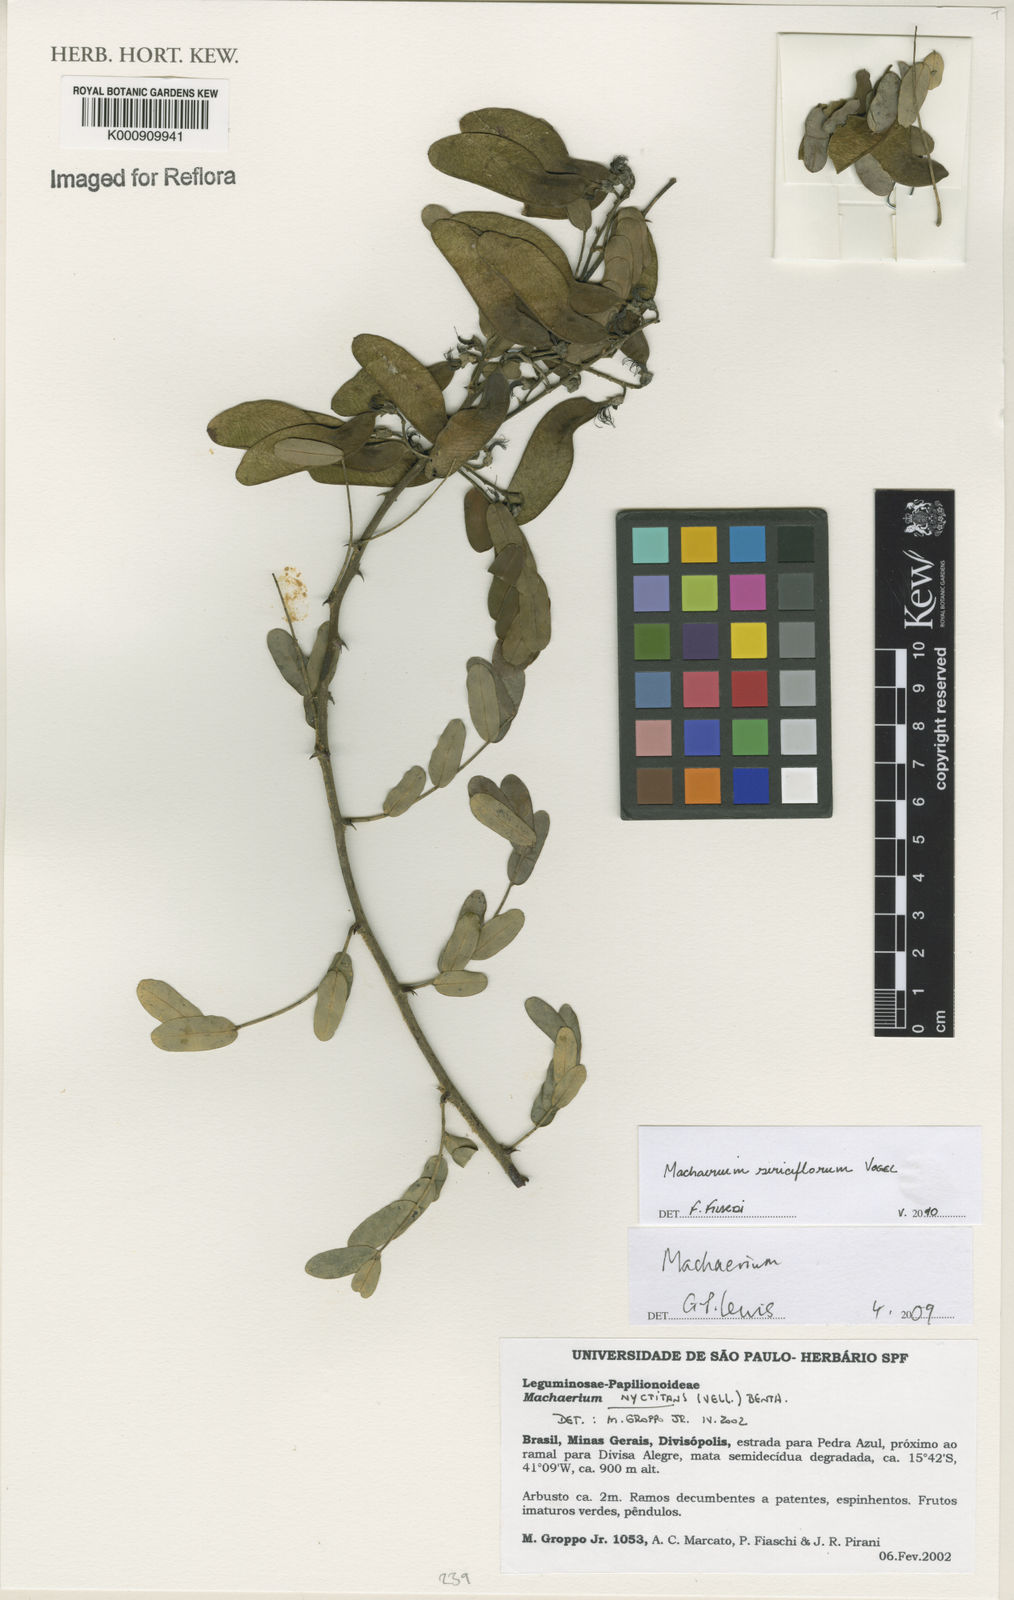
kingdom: Plantae
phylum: Tracheophyta
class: Magnoliopsida
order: Fabales
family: Fabaceae
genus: Machaerium
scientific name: Machaerium scleroxylon
